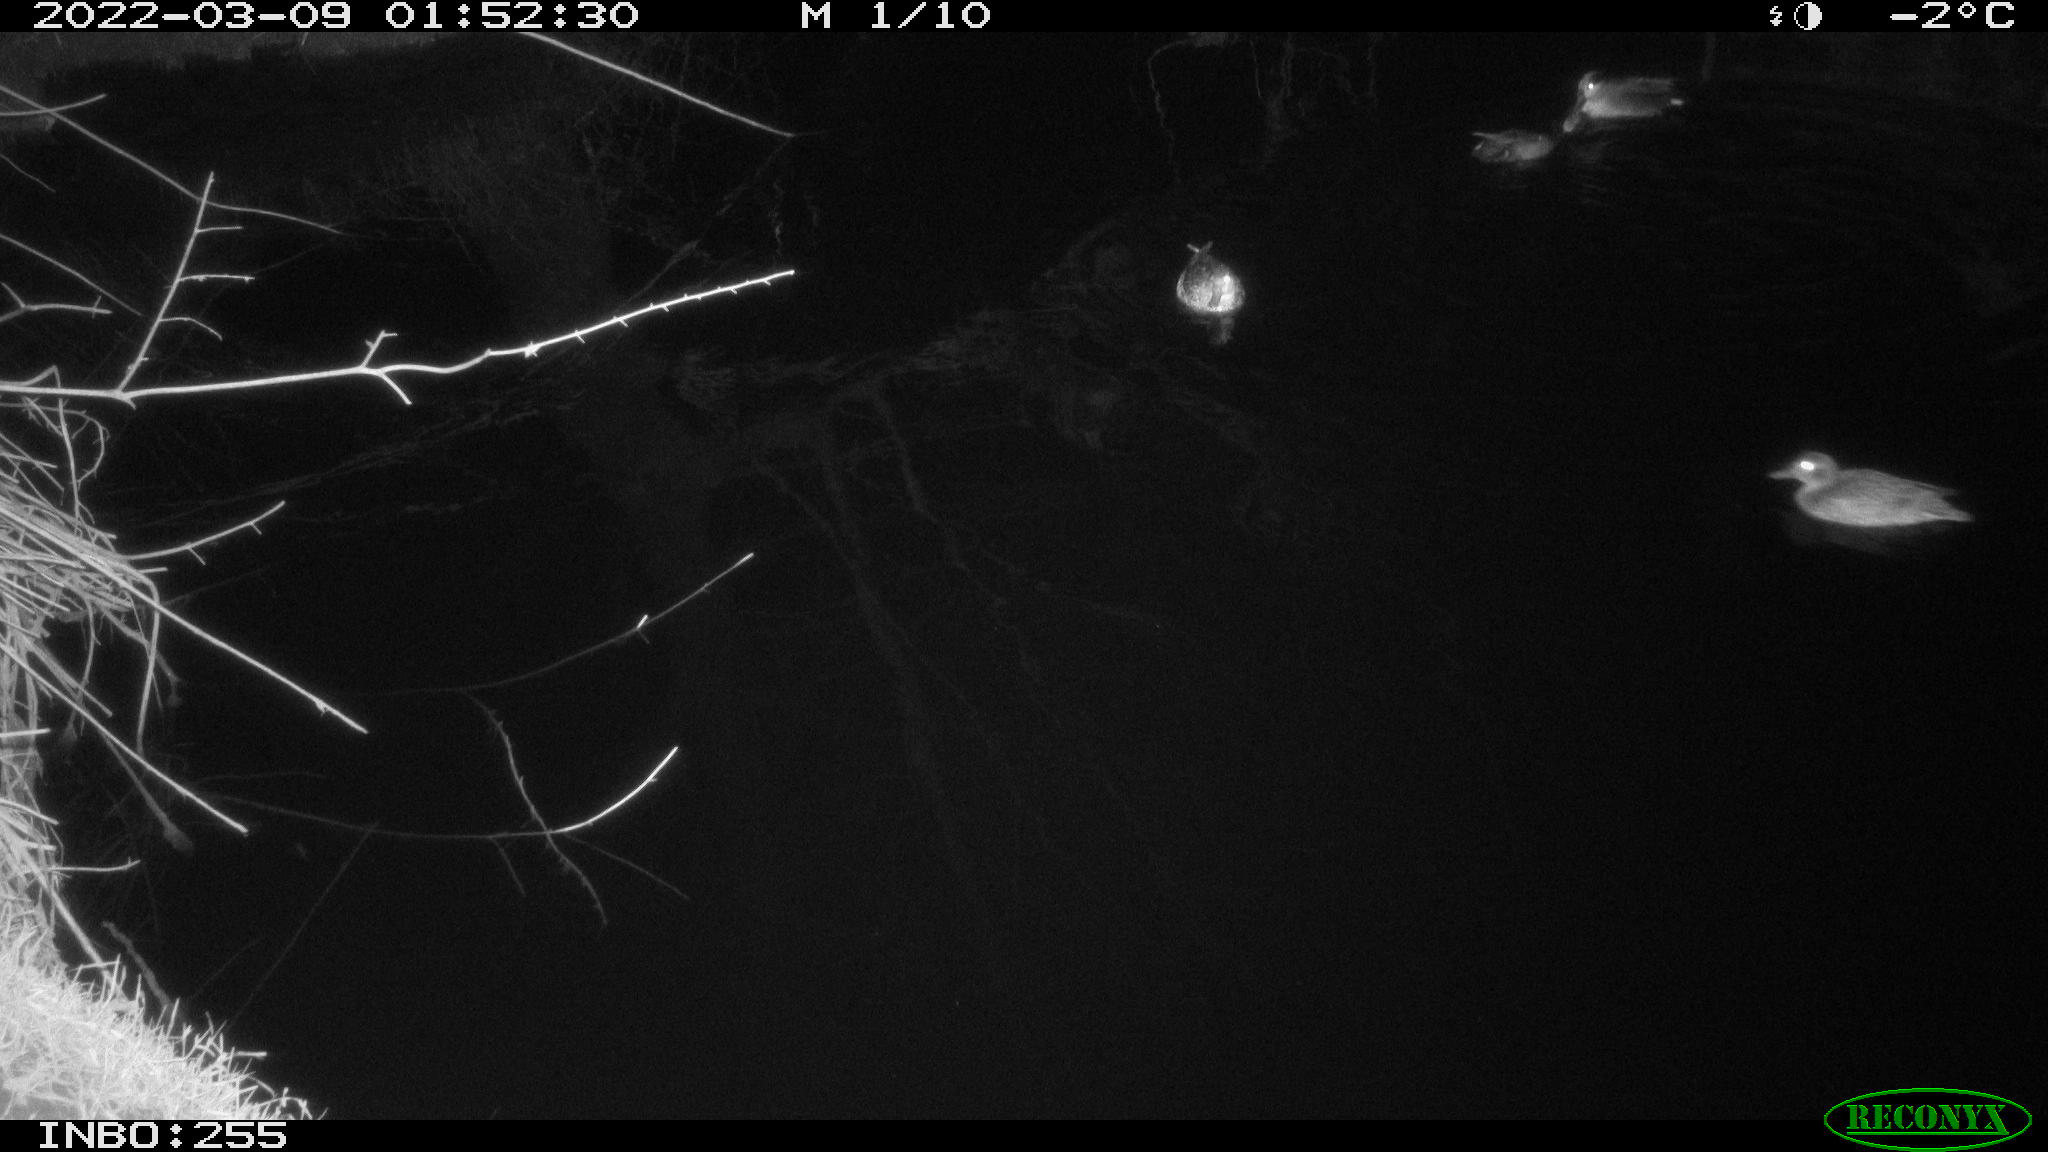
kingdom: Animalia
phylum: Chordata
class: Aves
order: Anseriformes
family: Anatidae
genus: Anas
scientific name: Anas crecca
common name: Eurasian teal
